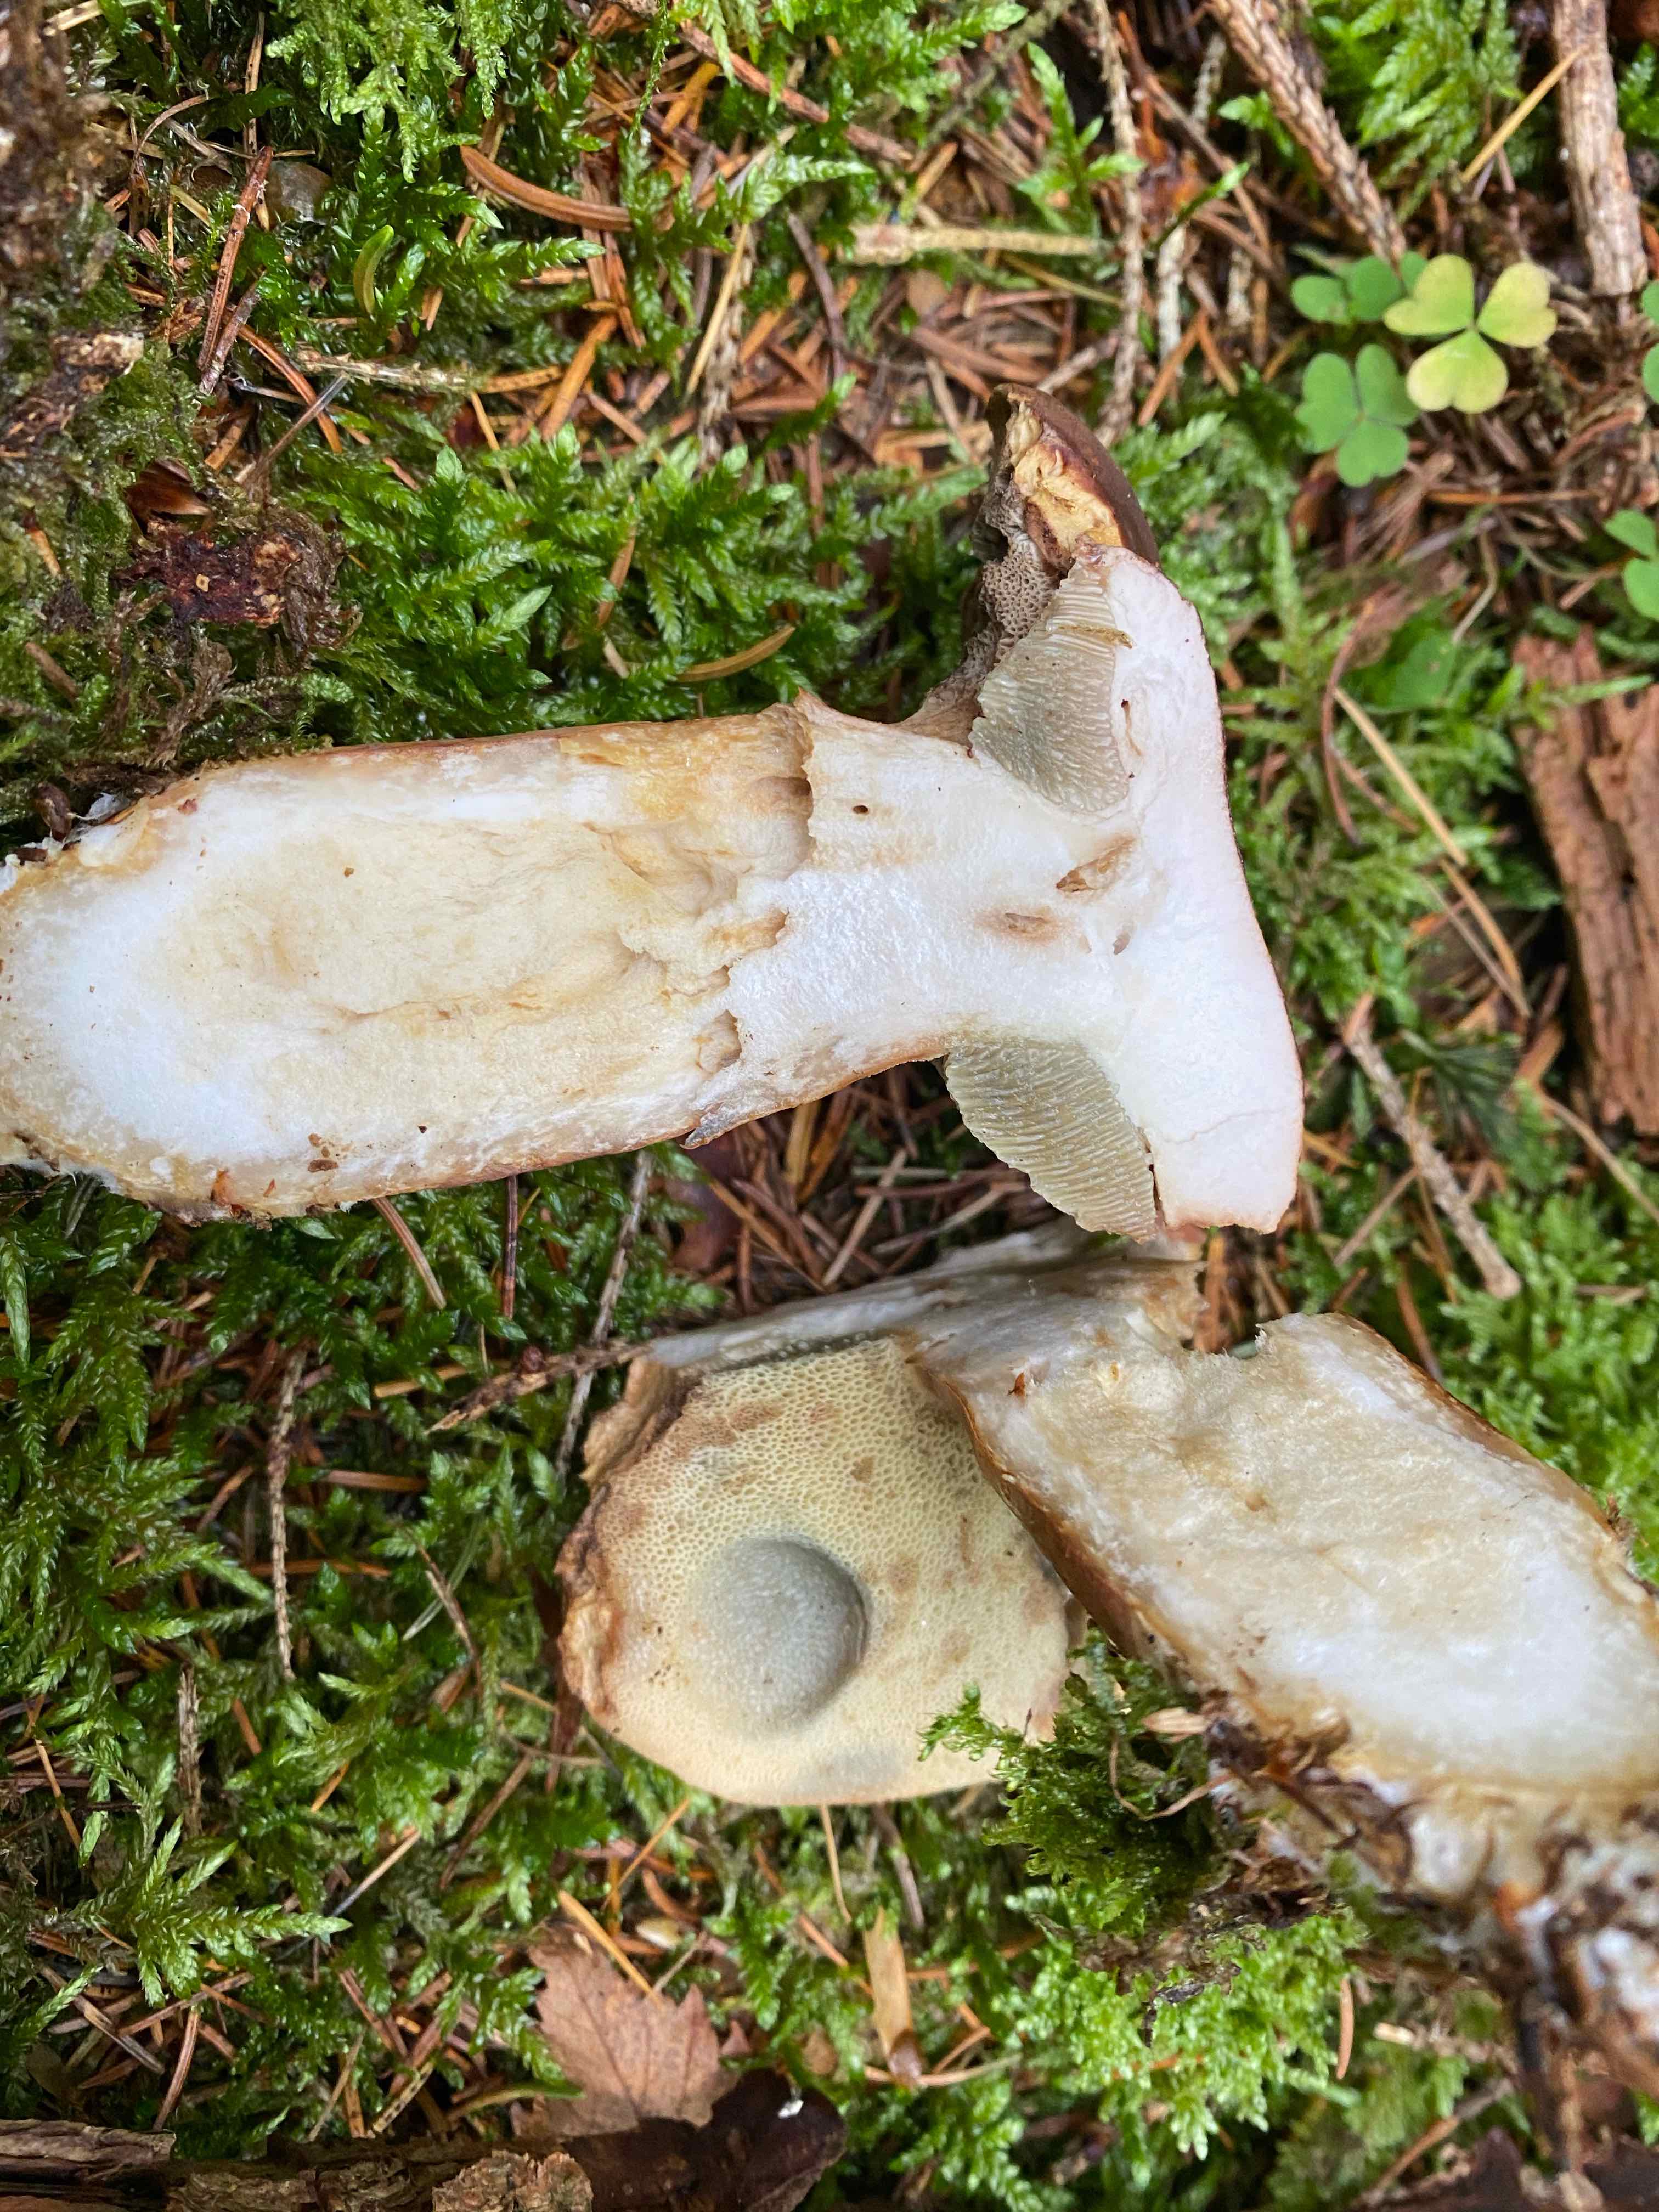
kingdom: Fungi
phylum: Basidiomycota
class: Agaricomycetes
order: Boletales
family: Boletaceae
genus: Imleria
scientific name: Imleria badia
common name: brunstokket rørhat
